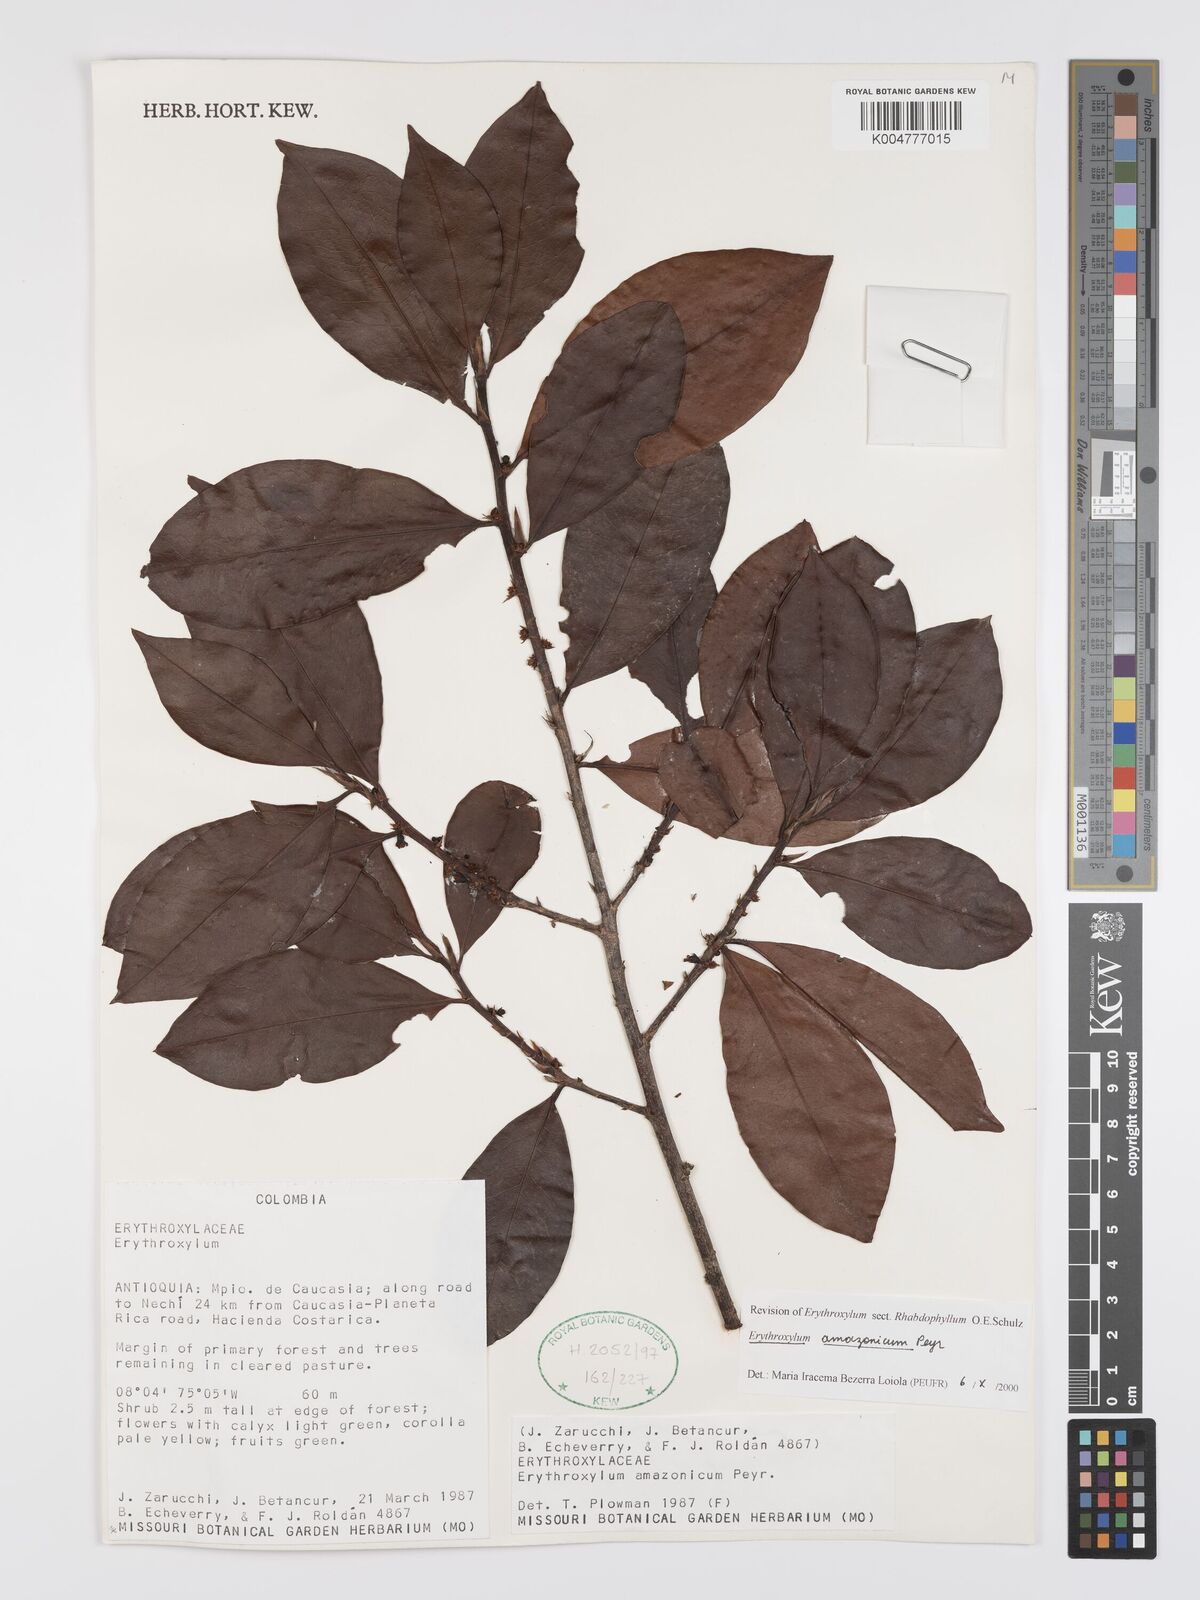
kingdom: Plantae
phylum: Tracheophyta
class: Magnoliopsida
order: Malpighiales
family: Erythroxylaceae
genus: Erythroxylum
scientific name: Erythroxylum amazonicum
